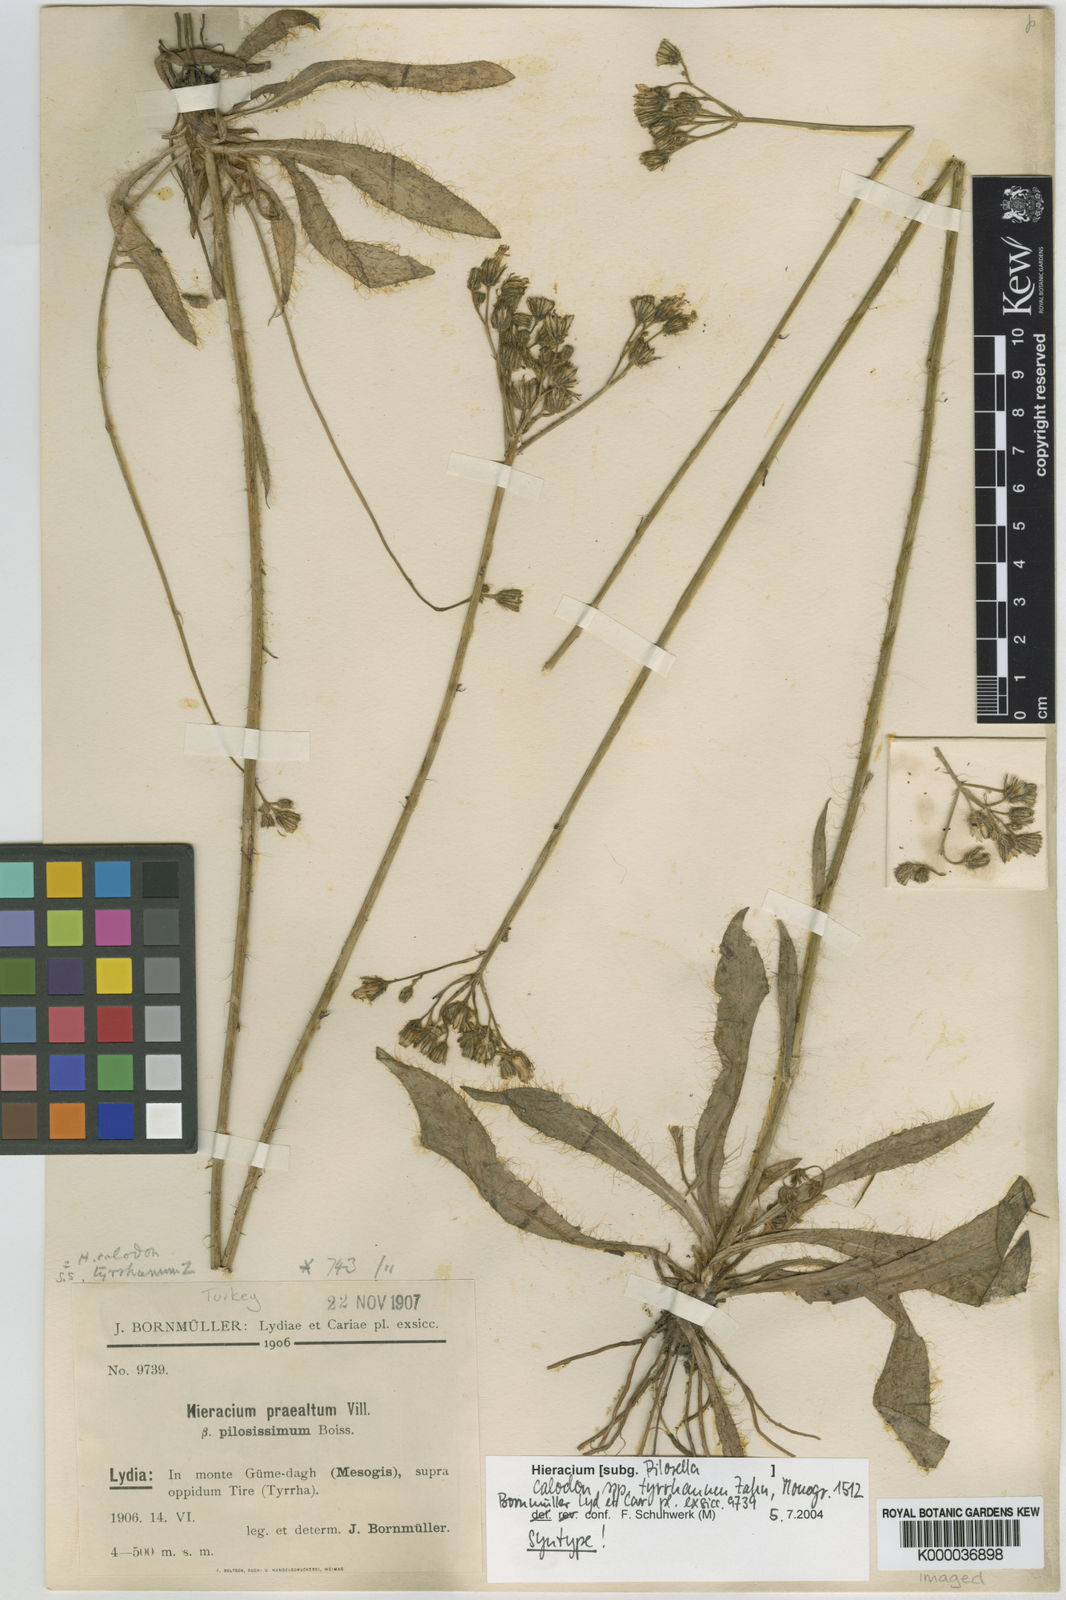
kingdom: Plantae
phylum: Tracheophyta
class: Magnoliopsida
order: Asterales
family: Asteraceae
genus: Hieracium
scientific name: Hieracium
